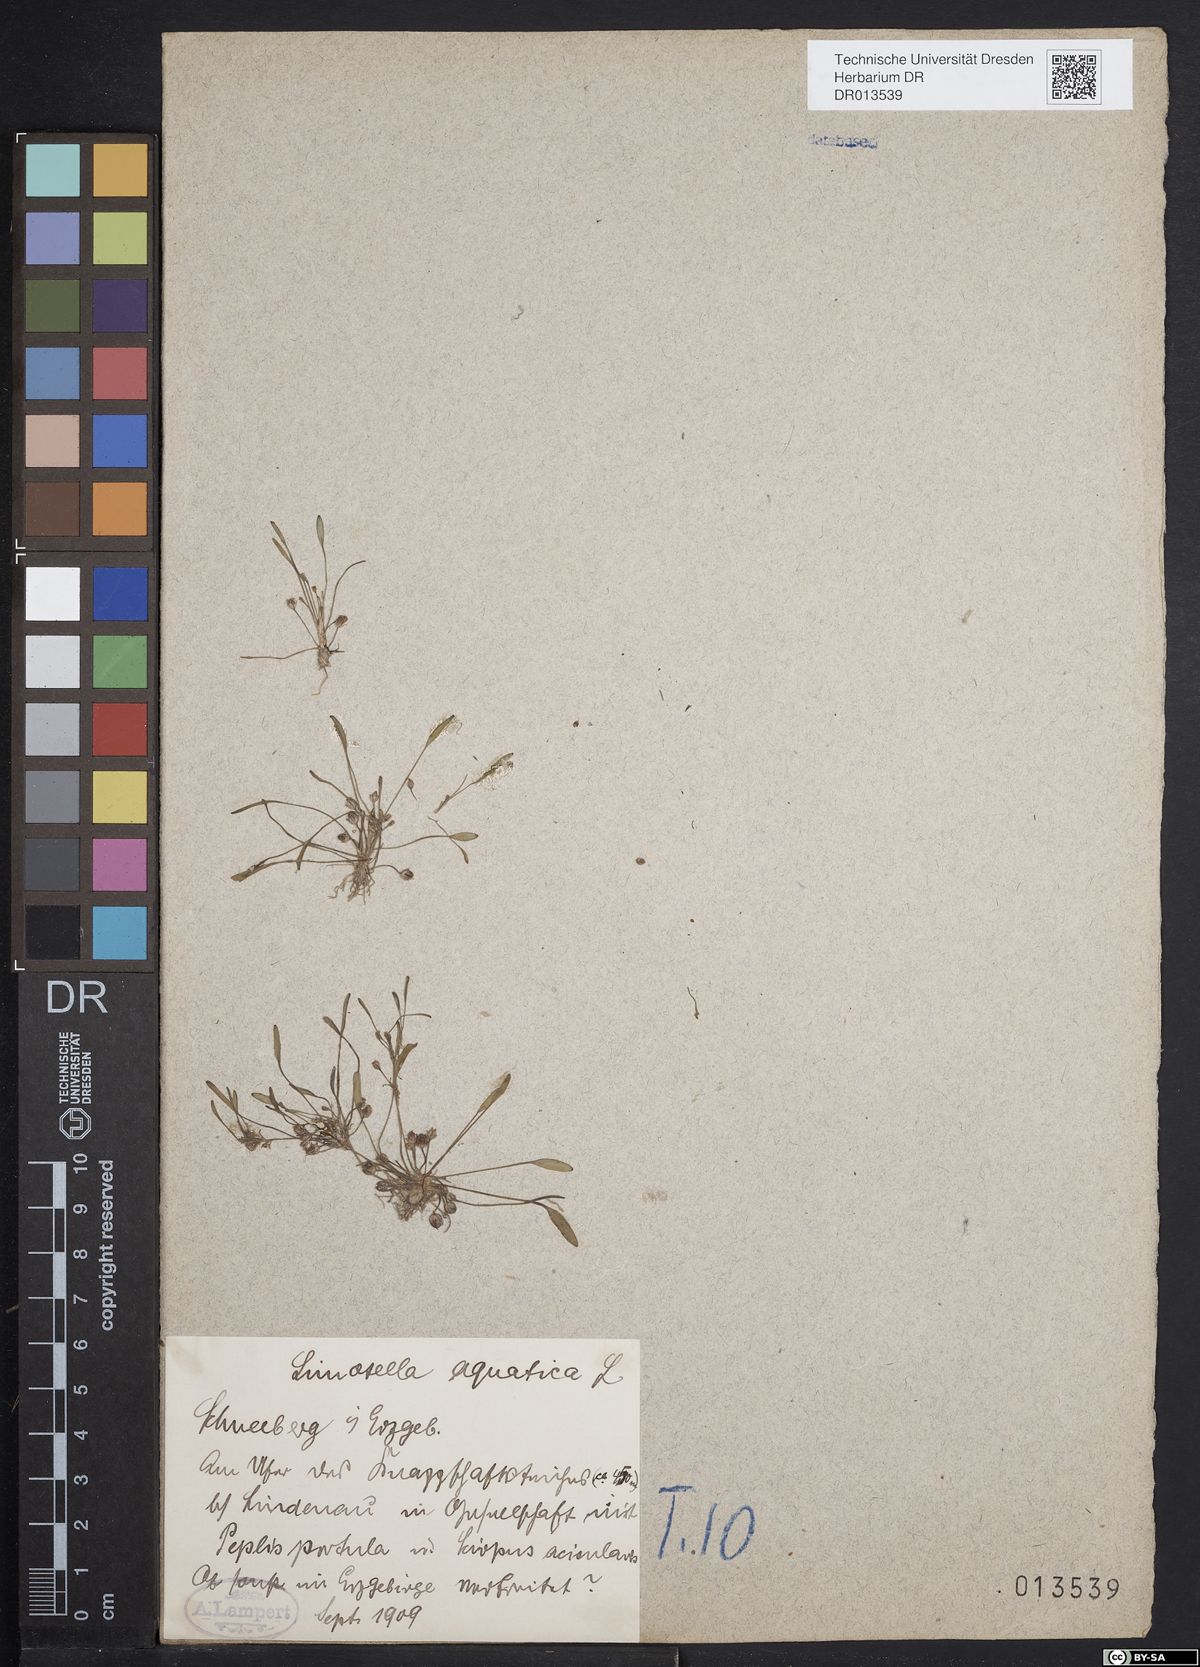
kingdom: Plantae
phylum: Tracheophyta
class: Magnoliopsida
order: Lamiales
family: Scrophulariaceae
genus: Limosella
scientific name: Limosella aquatica
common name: Mudwort
